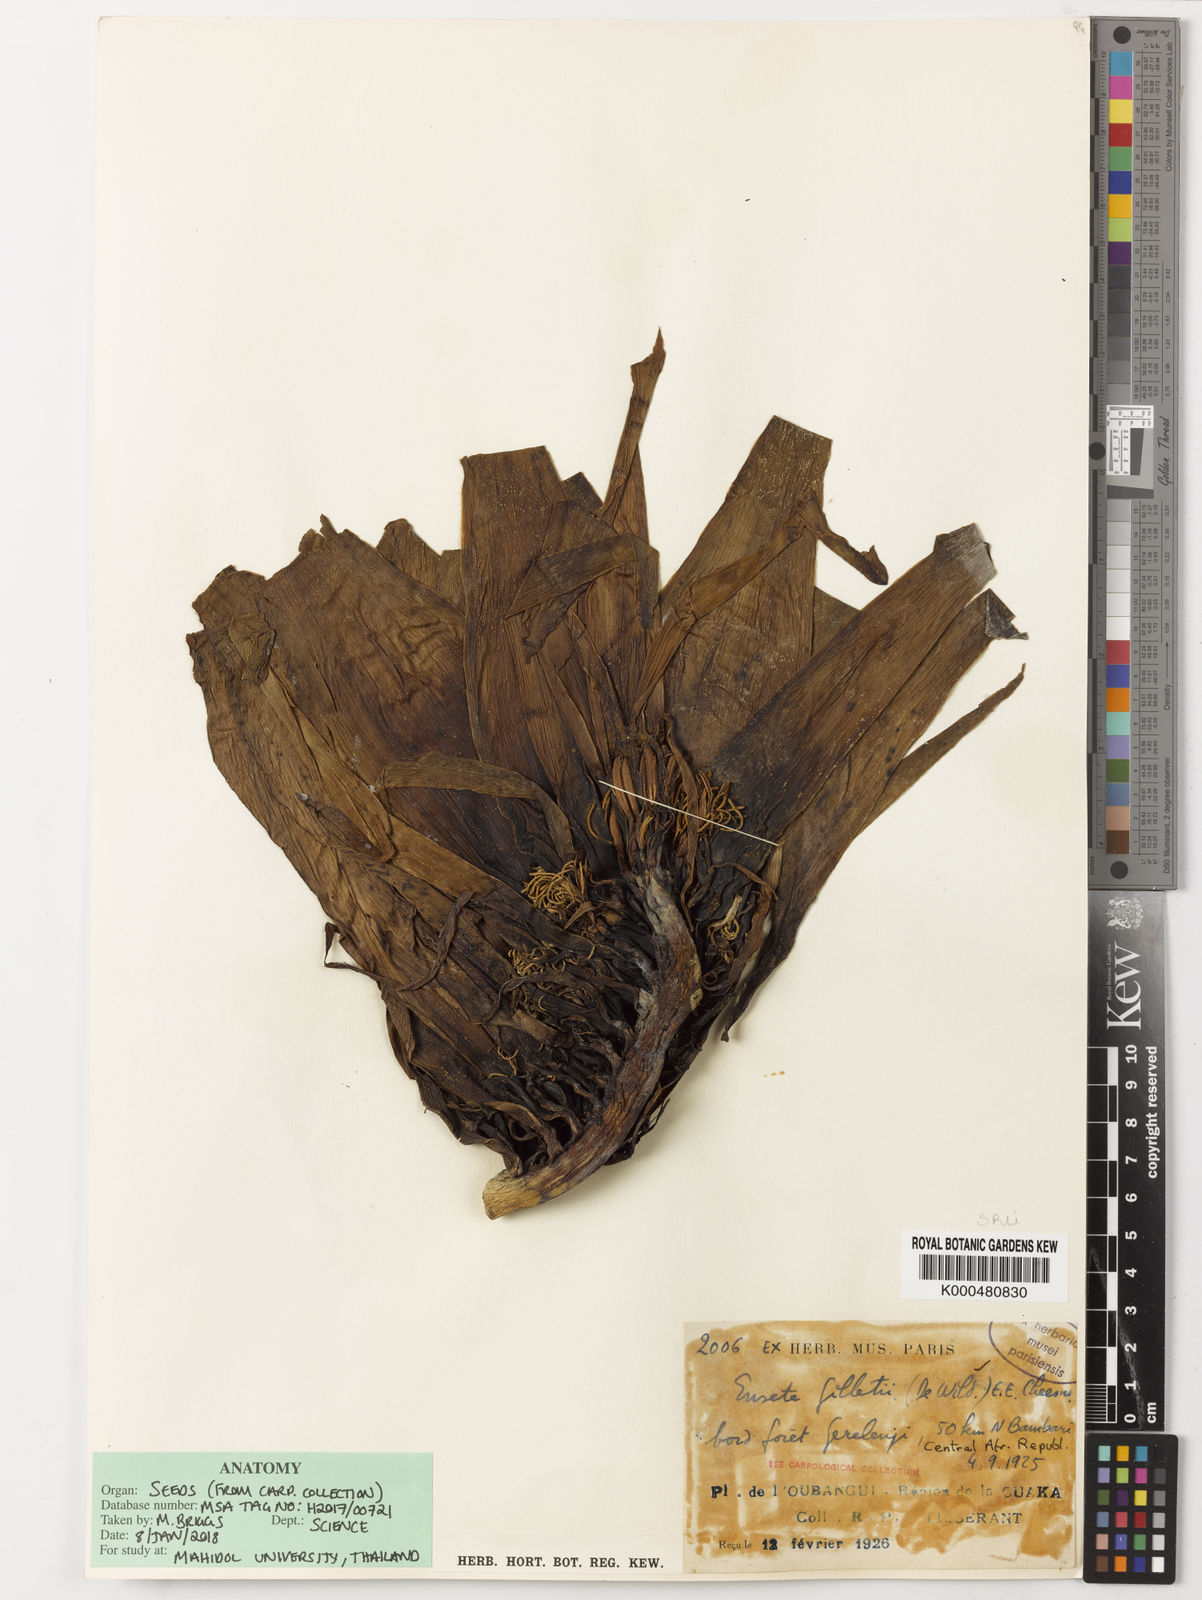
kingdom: Plantae
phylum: Tracheophyta
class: Liliopsida
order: Zingiberales
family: Musaceae
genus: Ensete
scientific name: Ensete livingstonianum
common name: Livingston's banana
